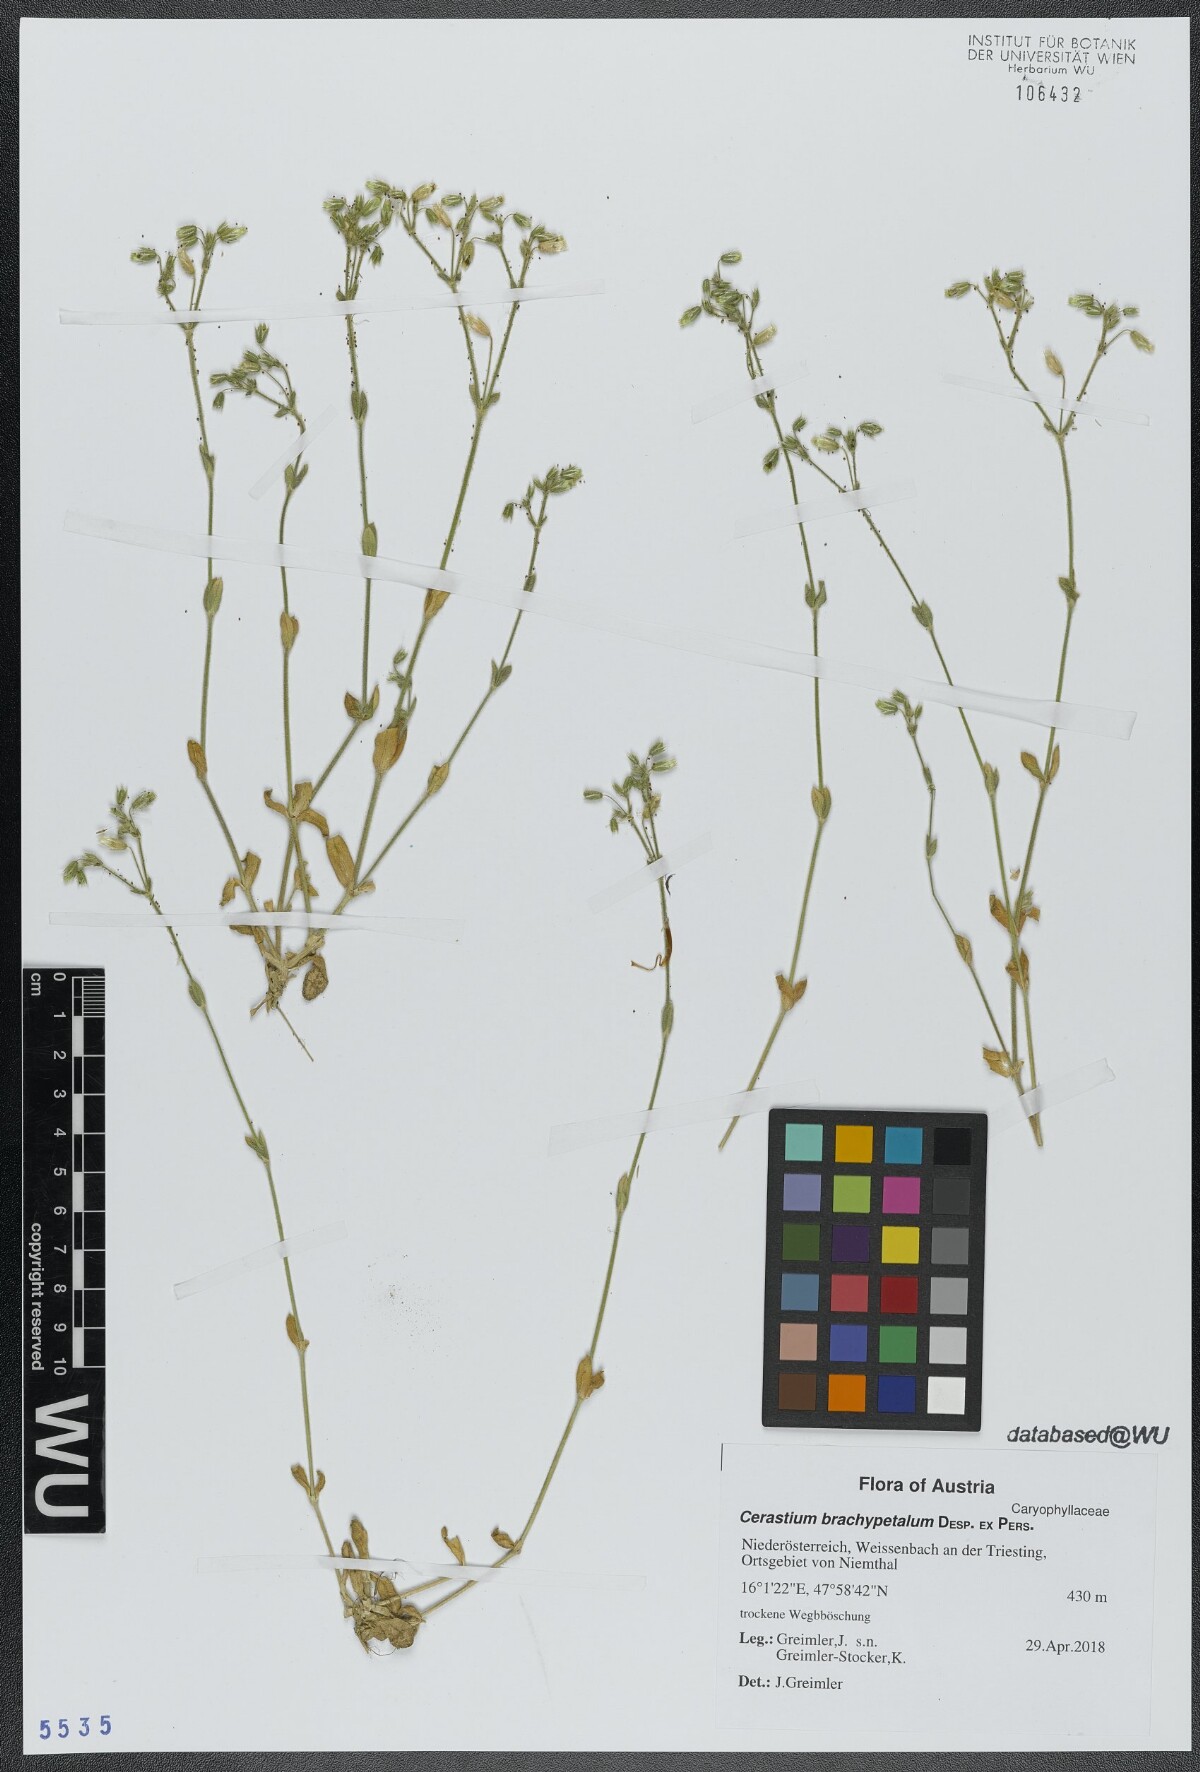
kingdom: Plantae
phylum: Tracheophyta
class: Magnoliopsida
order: Caryophyllales
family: Caryophyllaceae
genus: Cerastium
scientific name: Cerastium brachypetalum
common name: Grey mouse-ear
